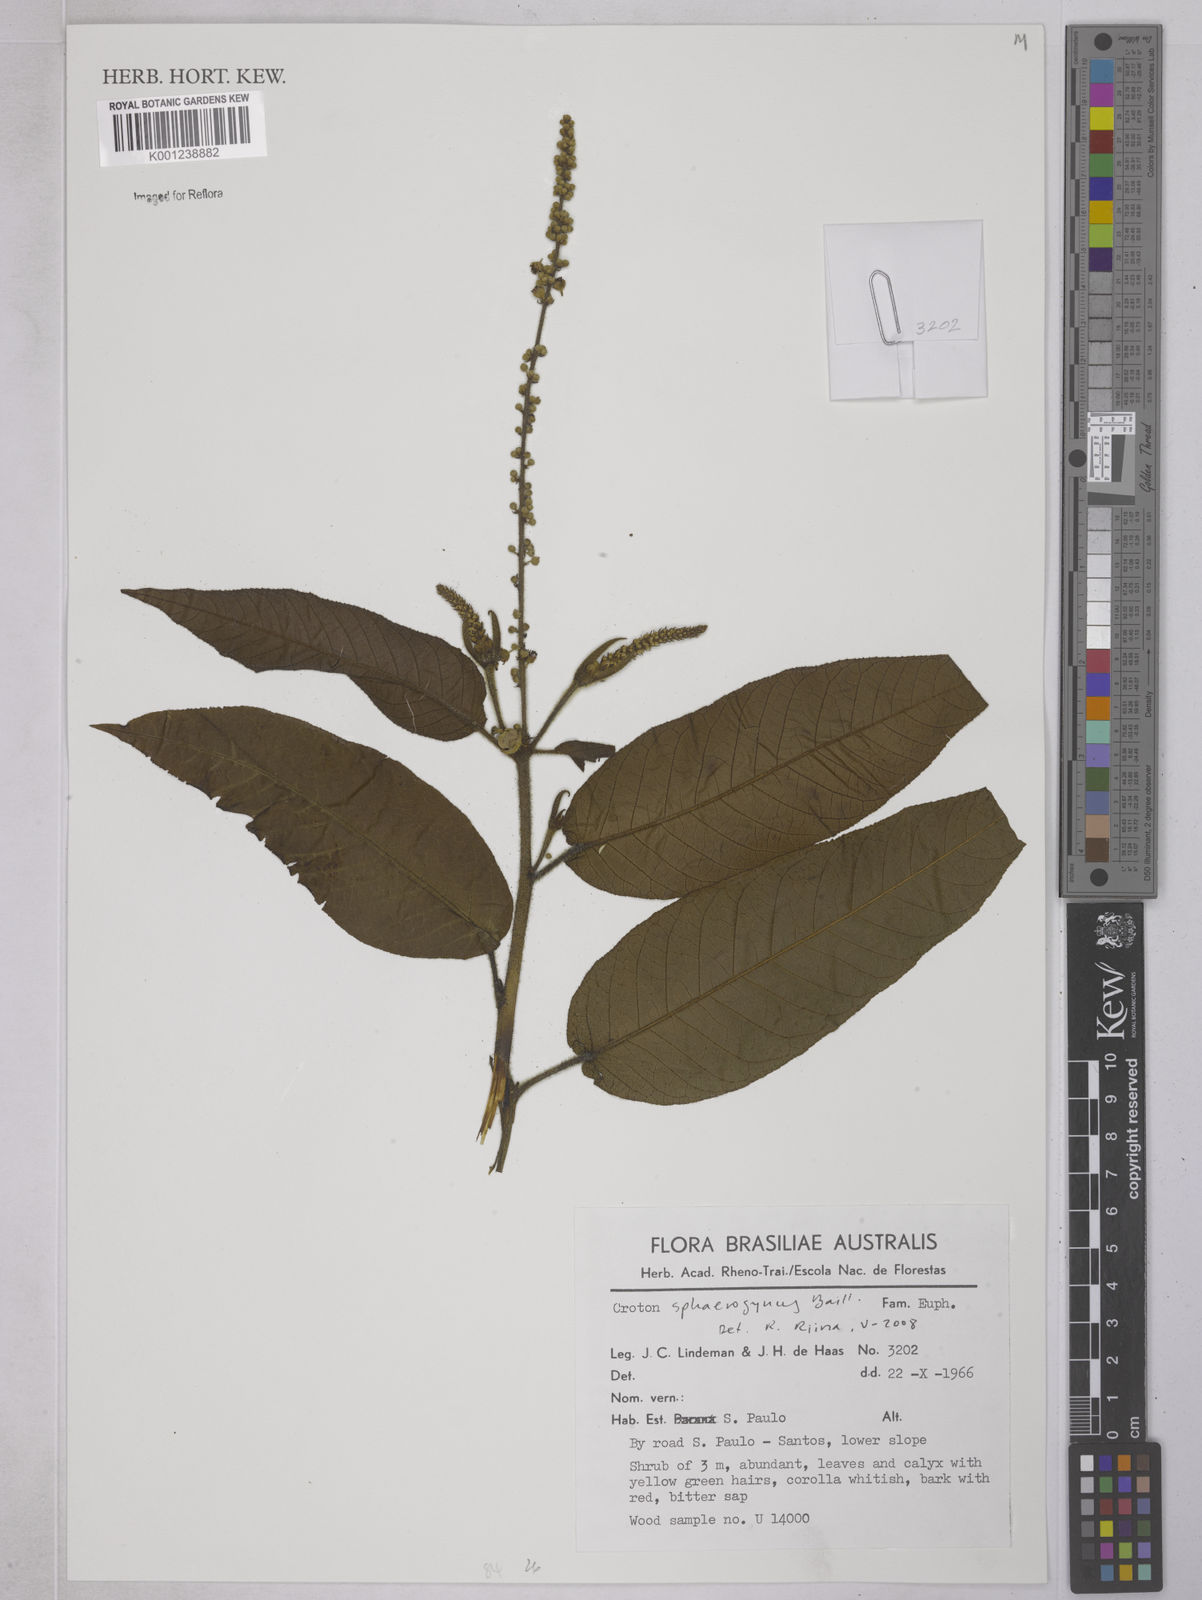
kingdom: Plantae
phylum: Tracheophyta
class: Magnoliopsida
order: Malpighiales
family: Euphorbiaceae
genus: Croton
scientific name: Croton sphaerogynus
